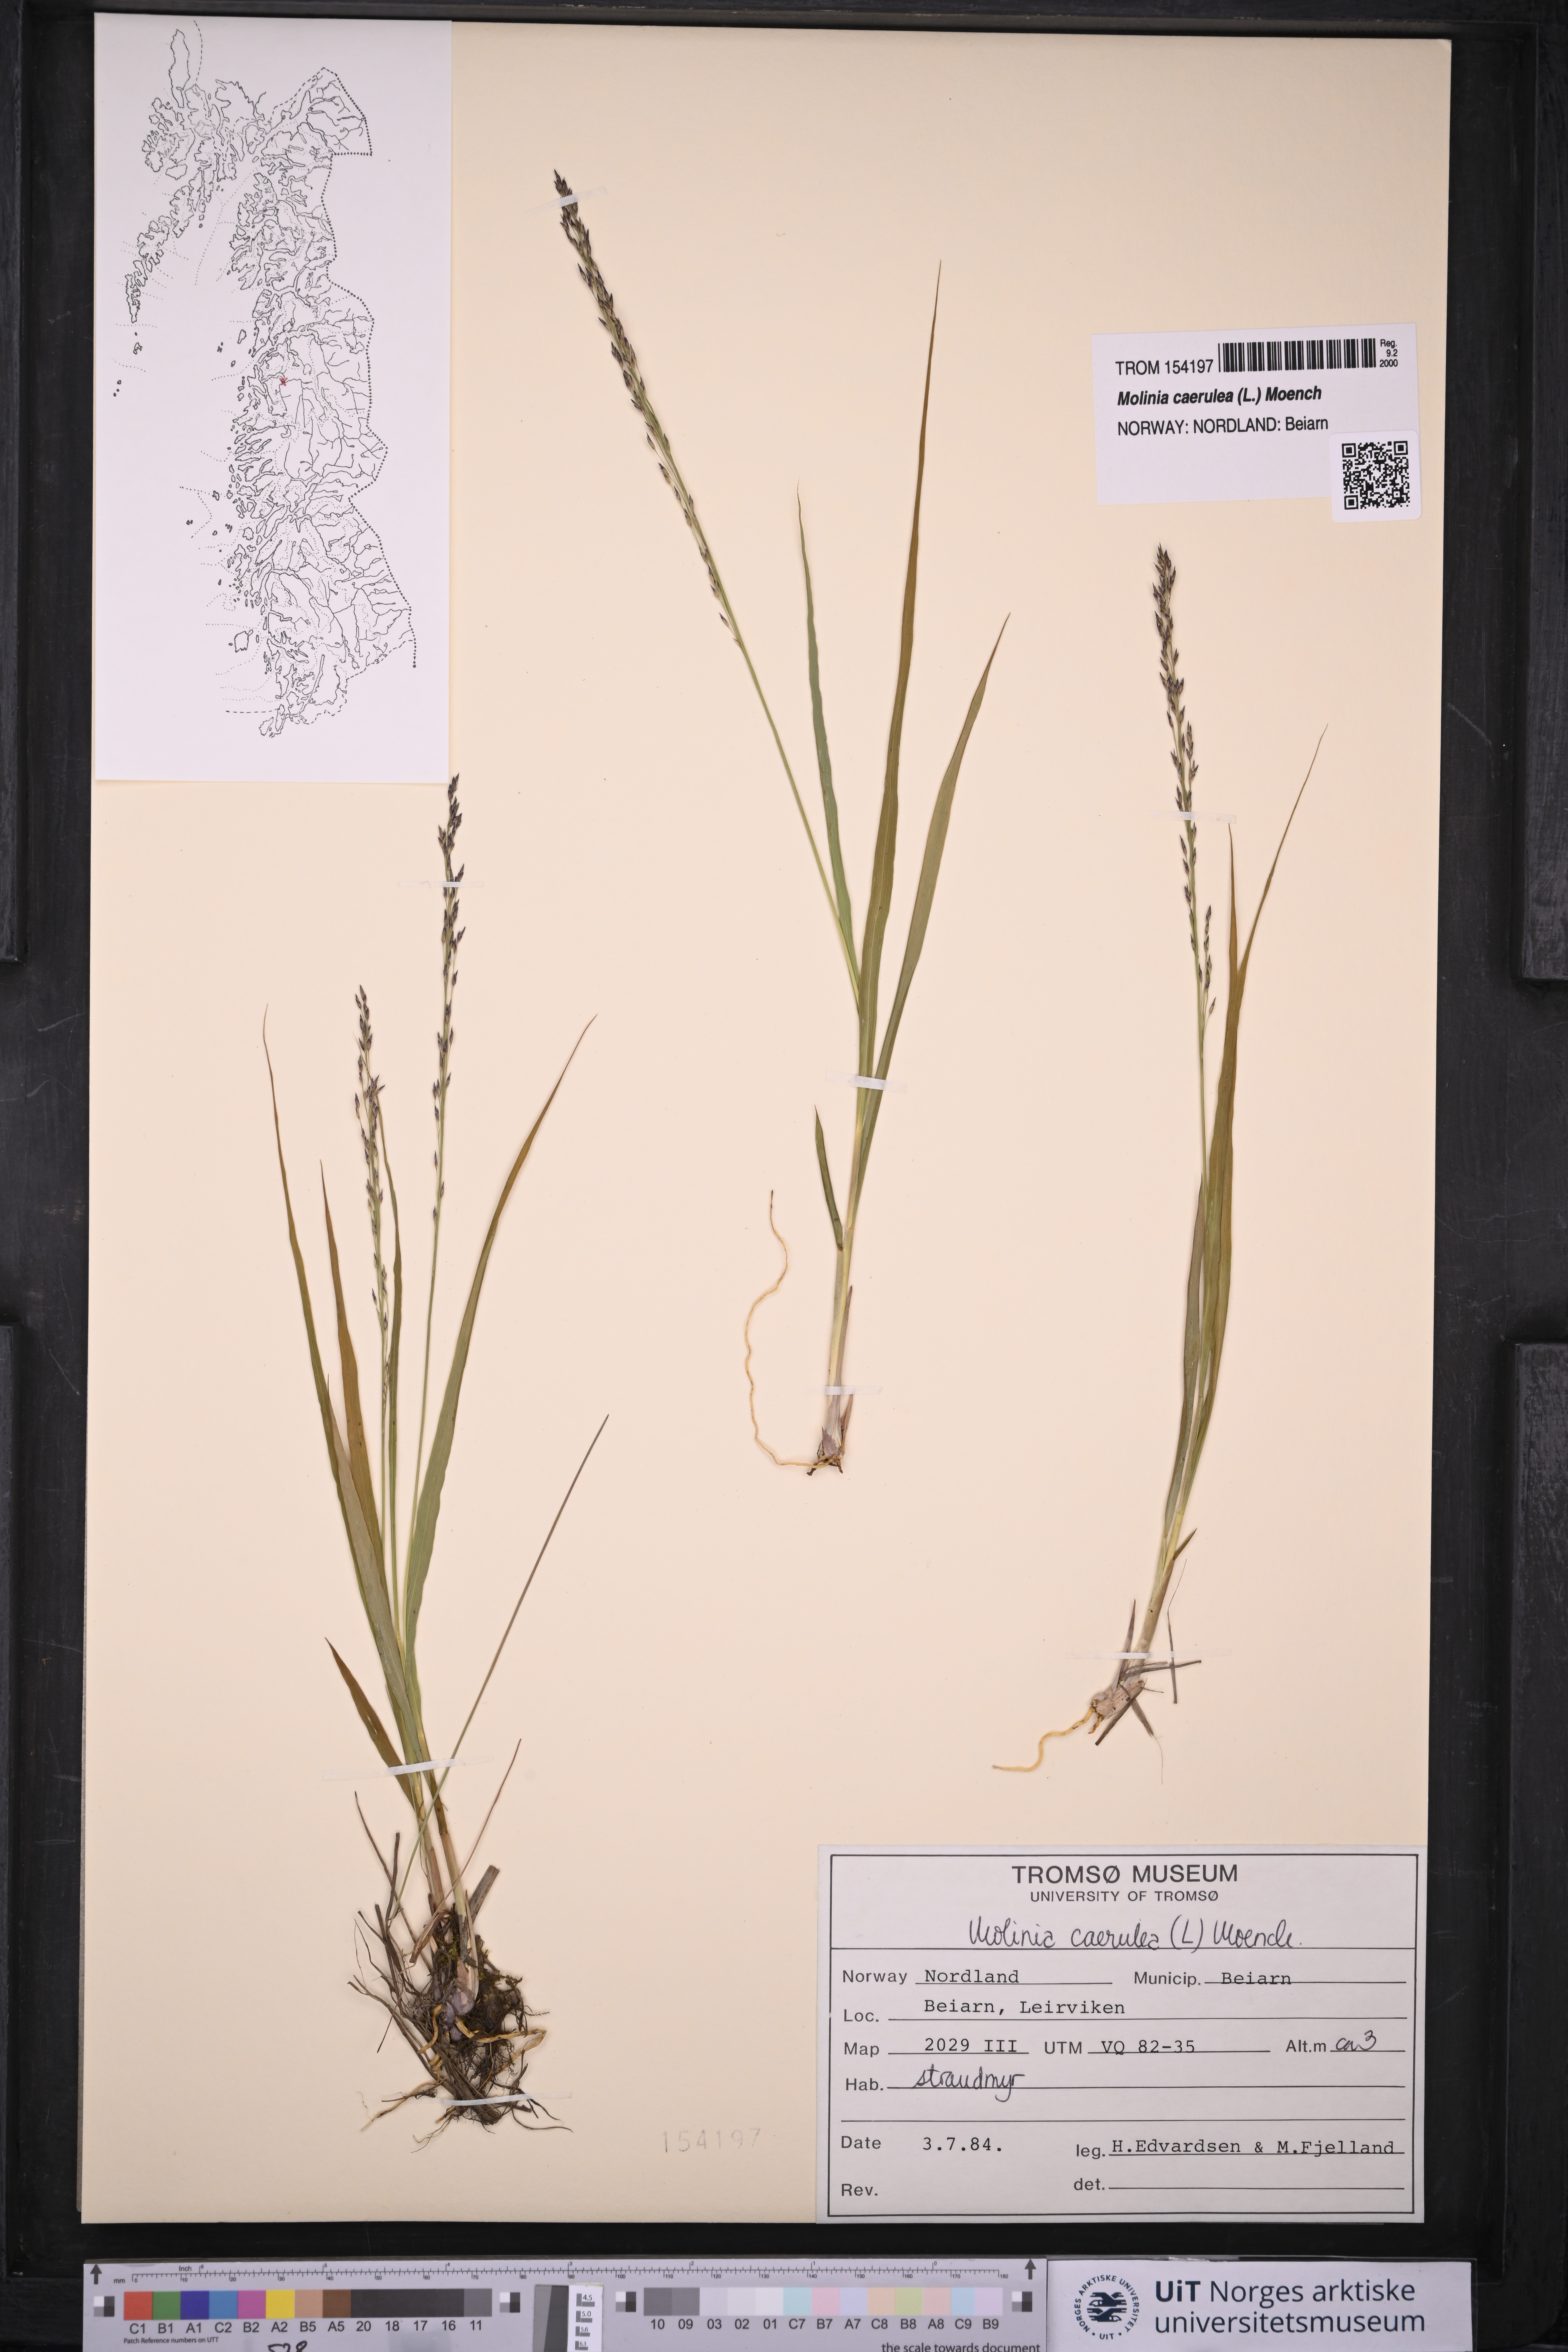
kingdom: Plantae
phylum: Tracheophyta
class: Liliopsida
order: Poales
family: Poaceae
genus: Molinia
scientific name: Molinia caerulea
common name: Purple moor-grass
